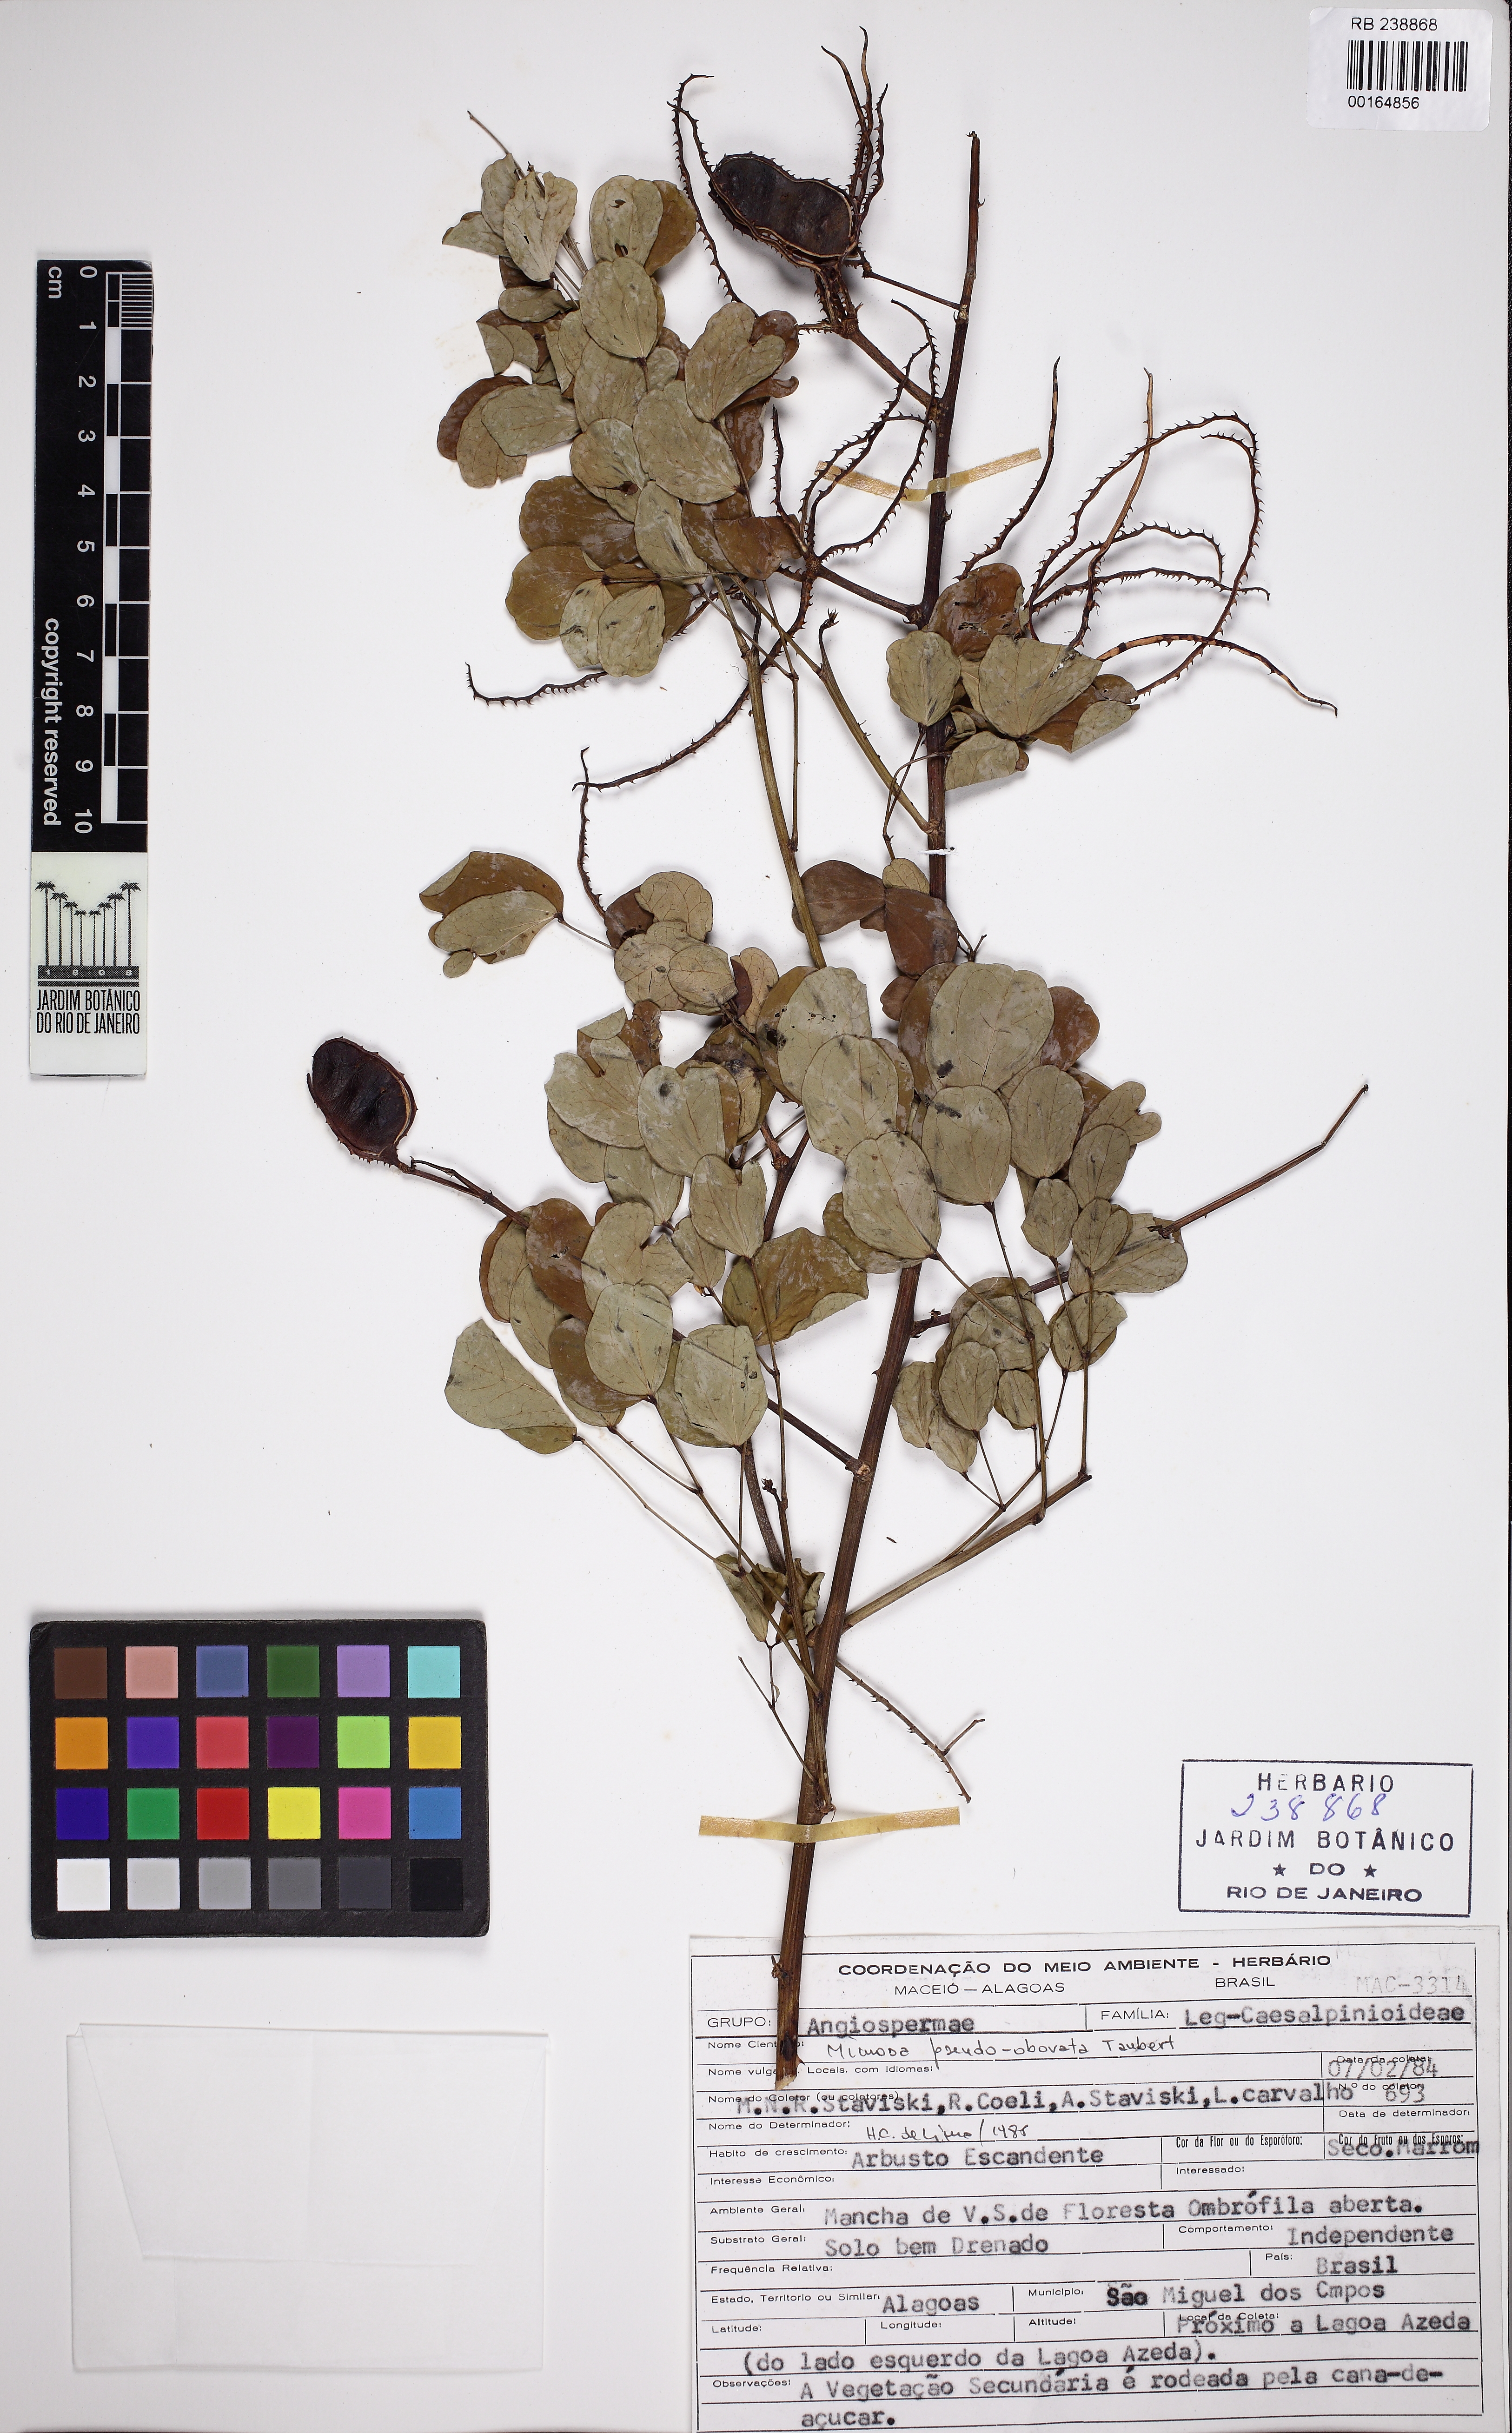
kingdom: Plantae
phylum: Tracheophyta
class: Magnoliopsida
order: Fabales
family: Fabaceae
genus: Mimosa
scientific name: Mimosa ceratonia
